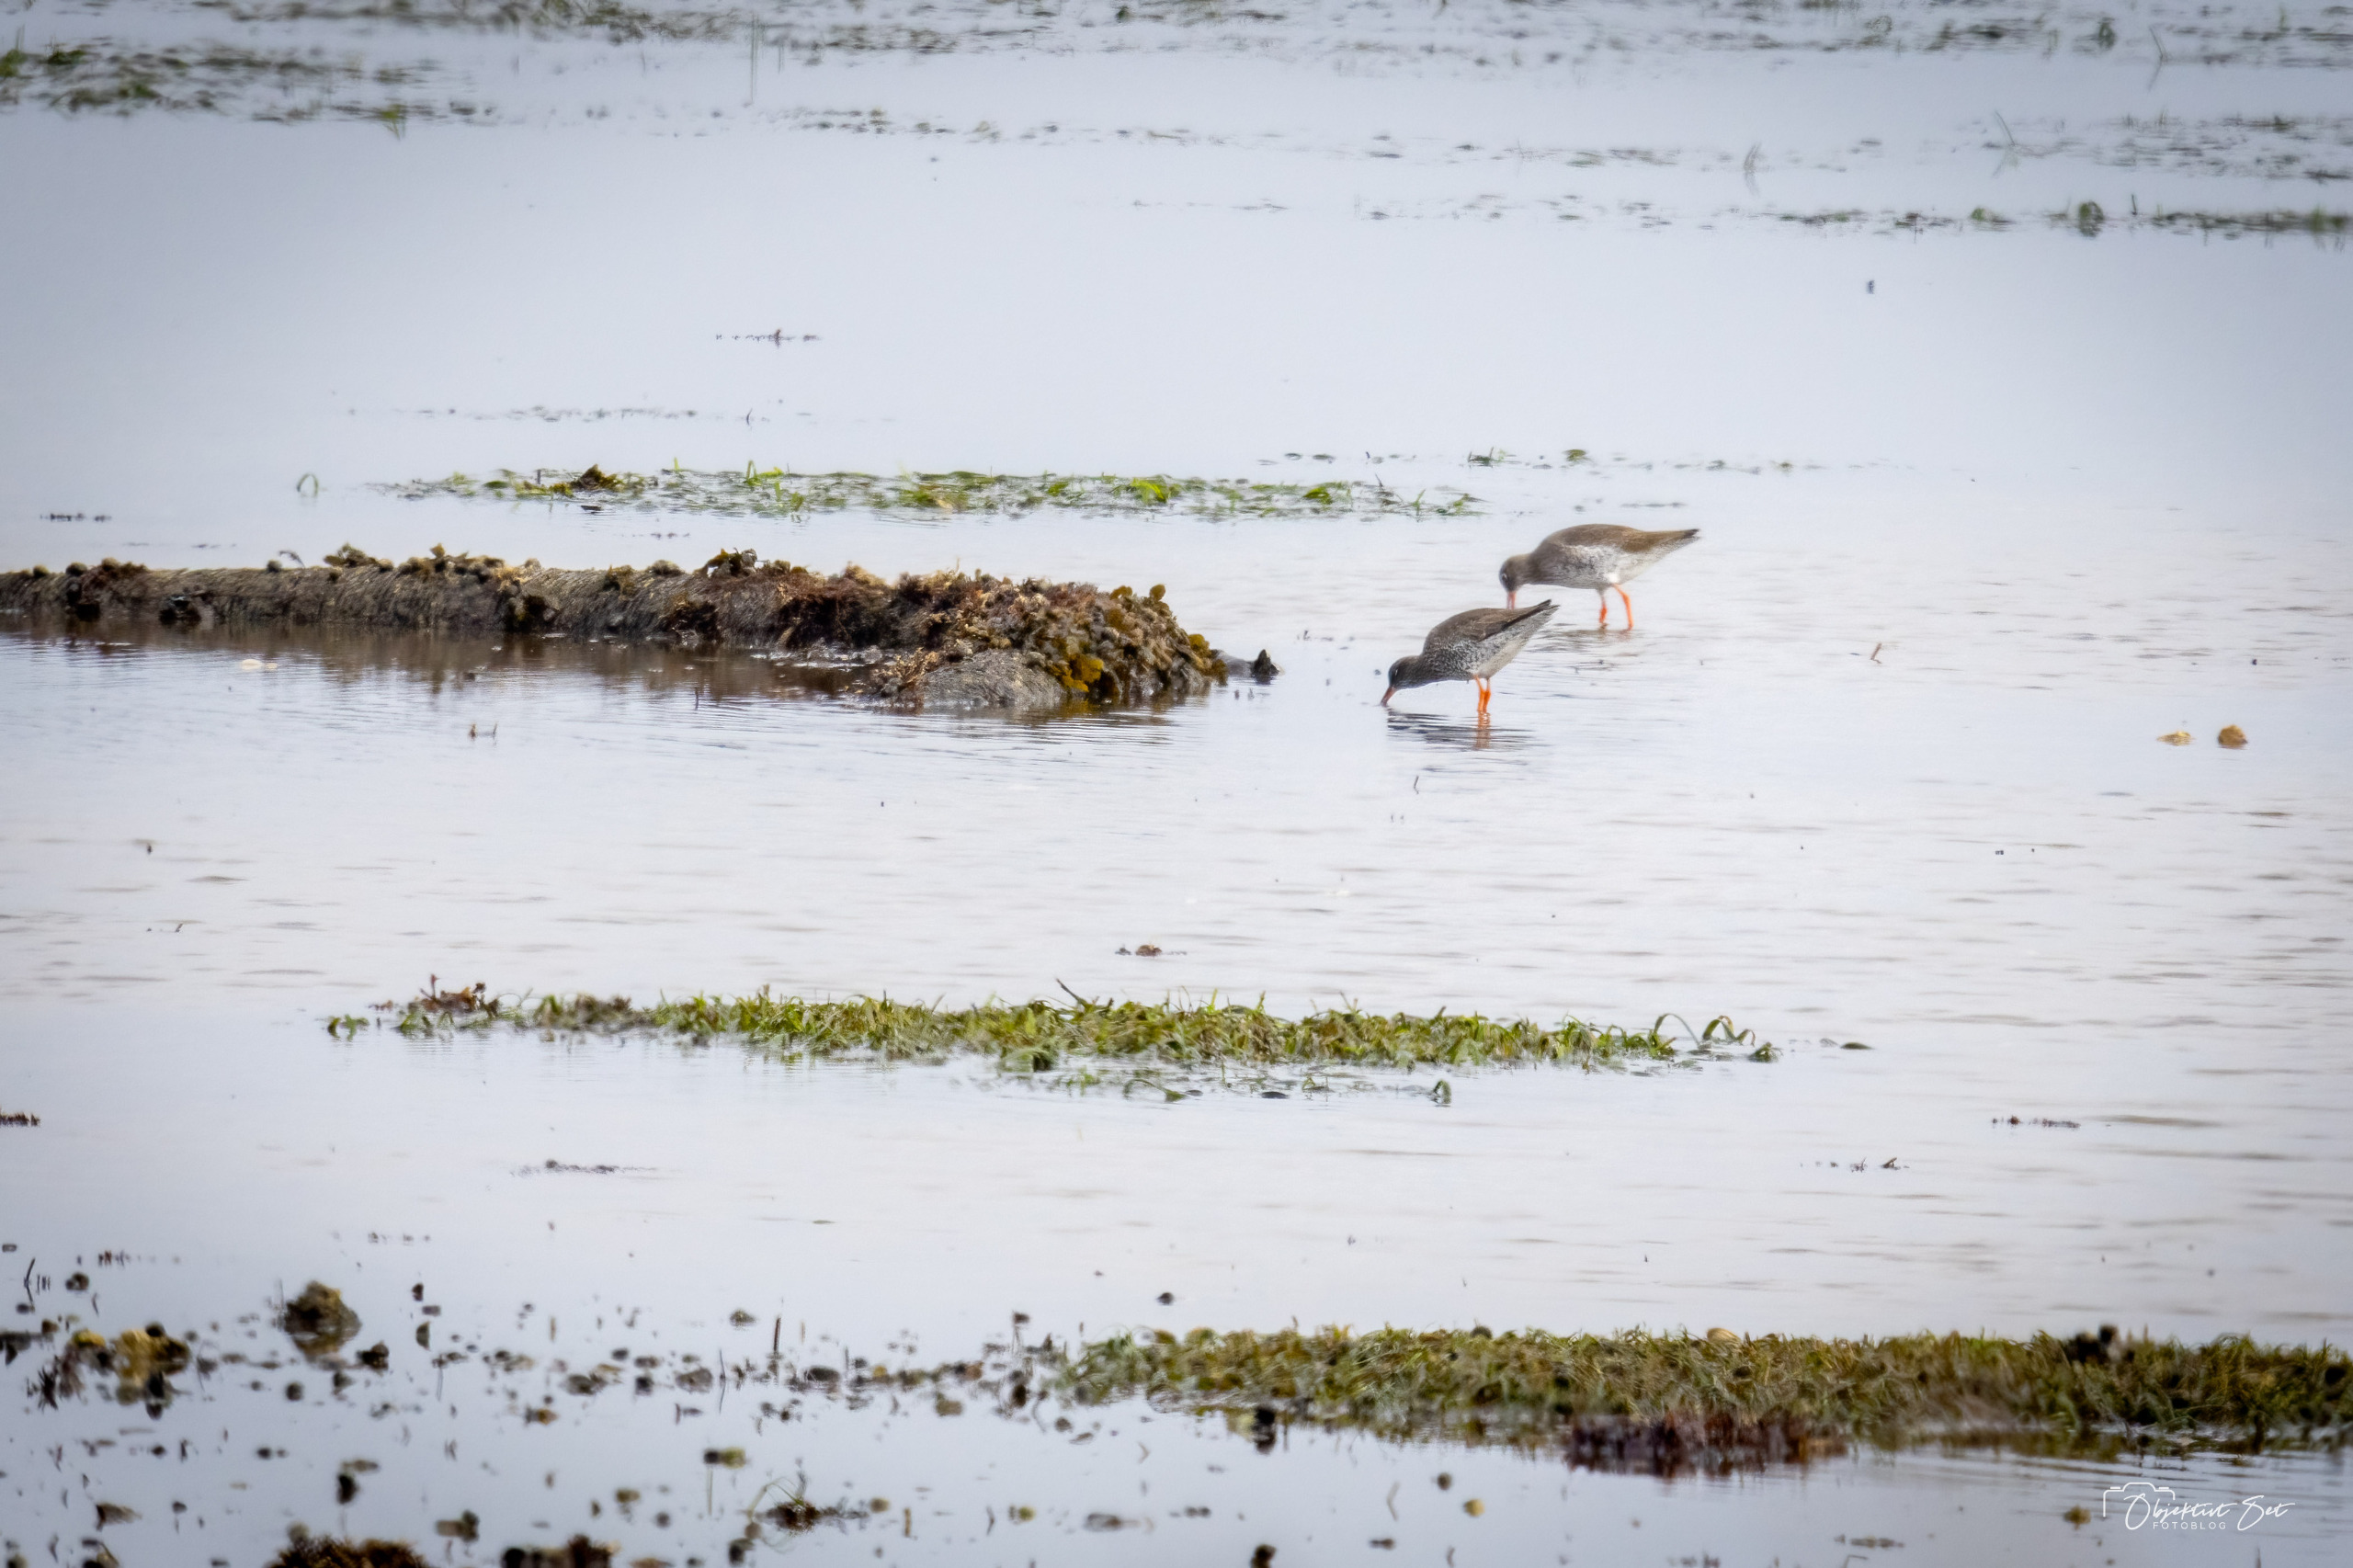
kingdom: Animalia
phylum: Chordata
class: Aves
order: Charadriiformes
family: Scolopacidae
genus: Tringa
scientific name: Tringa totanus
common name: Rødben
